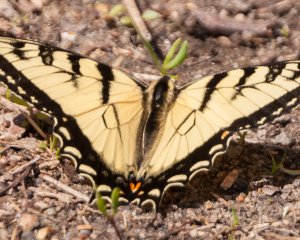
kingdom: Animalia
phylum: Arthropoda
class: Insecta
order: Lepidoptera
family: Papilionidae
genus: Pterourus
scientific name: Pterourus canadensis
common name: Canadian Tiger Swallowtail
